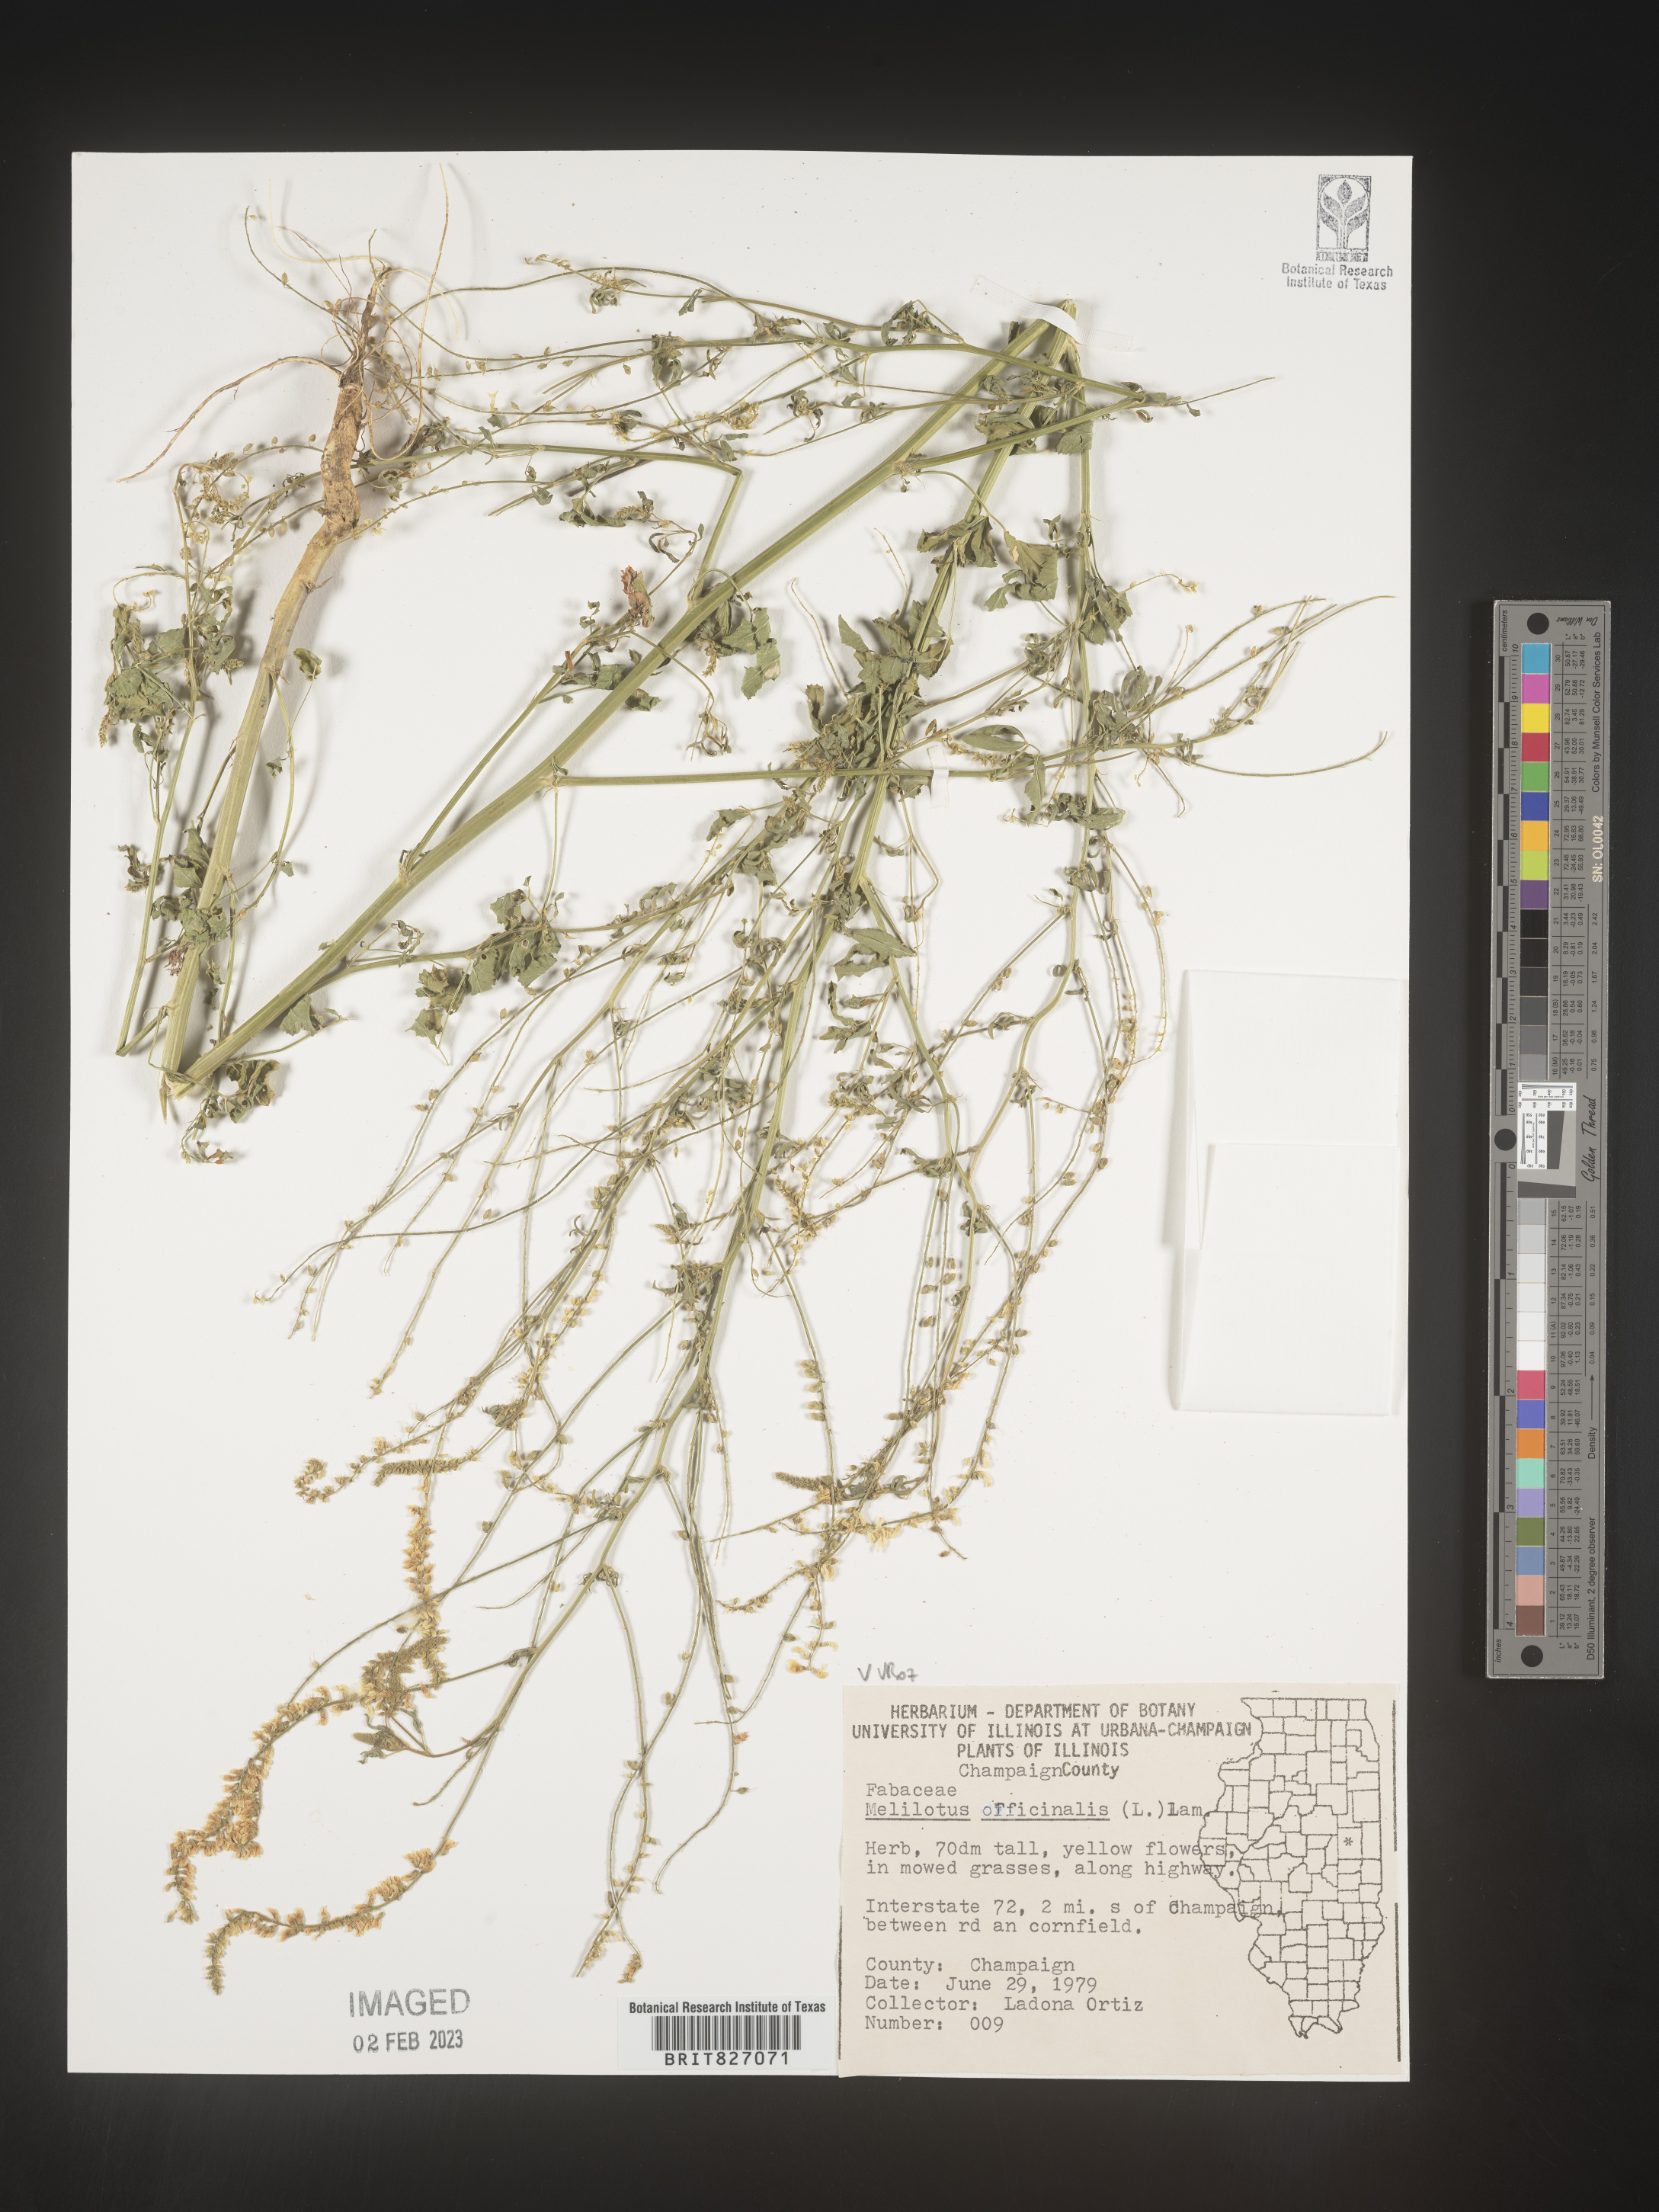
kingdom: Plantae
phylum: Tracheophyta
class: Magnoliopsida
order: Fabales
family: Fabaceae
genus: Melilotus
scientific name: Melilotus officinalis
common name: Sweetclover
